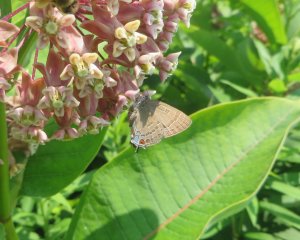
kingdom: Animalia
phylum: Arthropoda
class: Insecta
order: Lepidoptera
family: Lycaenidae
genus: Satyrium
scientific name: Satyrium calanus
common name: Banded Hairstreak
